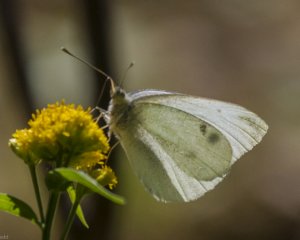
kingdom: Animalia
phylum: Arthropoda
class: Insecta
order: Lepidoptera
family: Pieridae
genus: Pieris
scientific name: Pieris rapae
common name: Cabbage White
